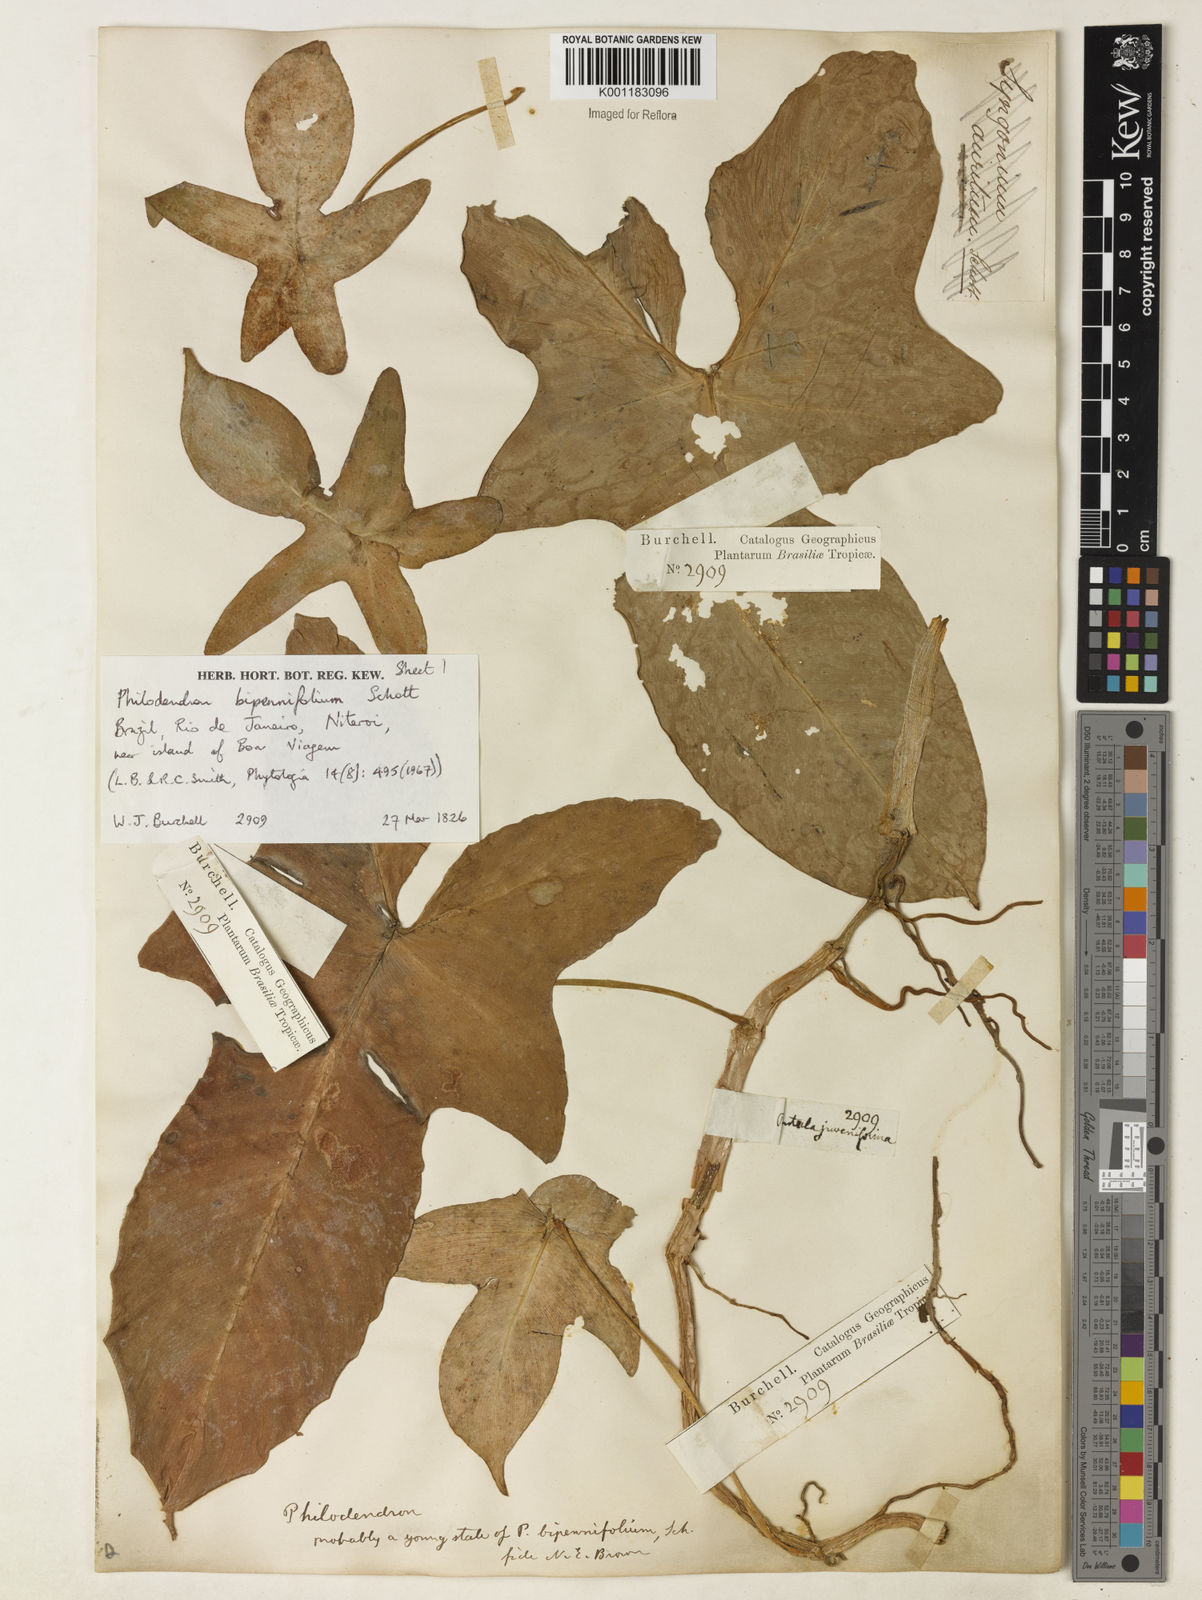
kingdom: Plantae
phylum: Tracheophyta
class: Liliopsida
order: Alismatales
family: Araceae
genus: Philodendron
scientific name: Philodendron bipennifolium
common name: Fiddle-leaf philodendron
